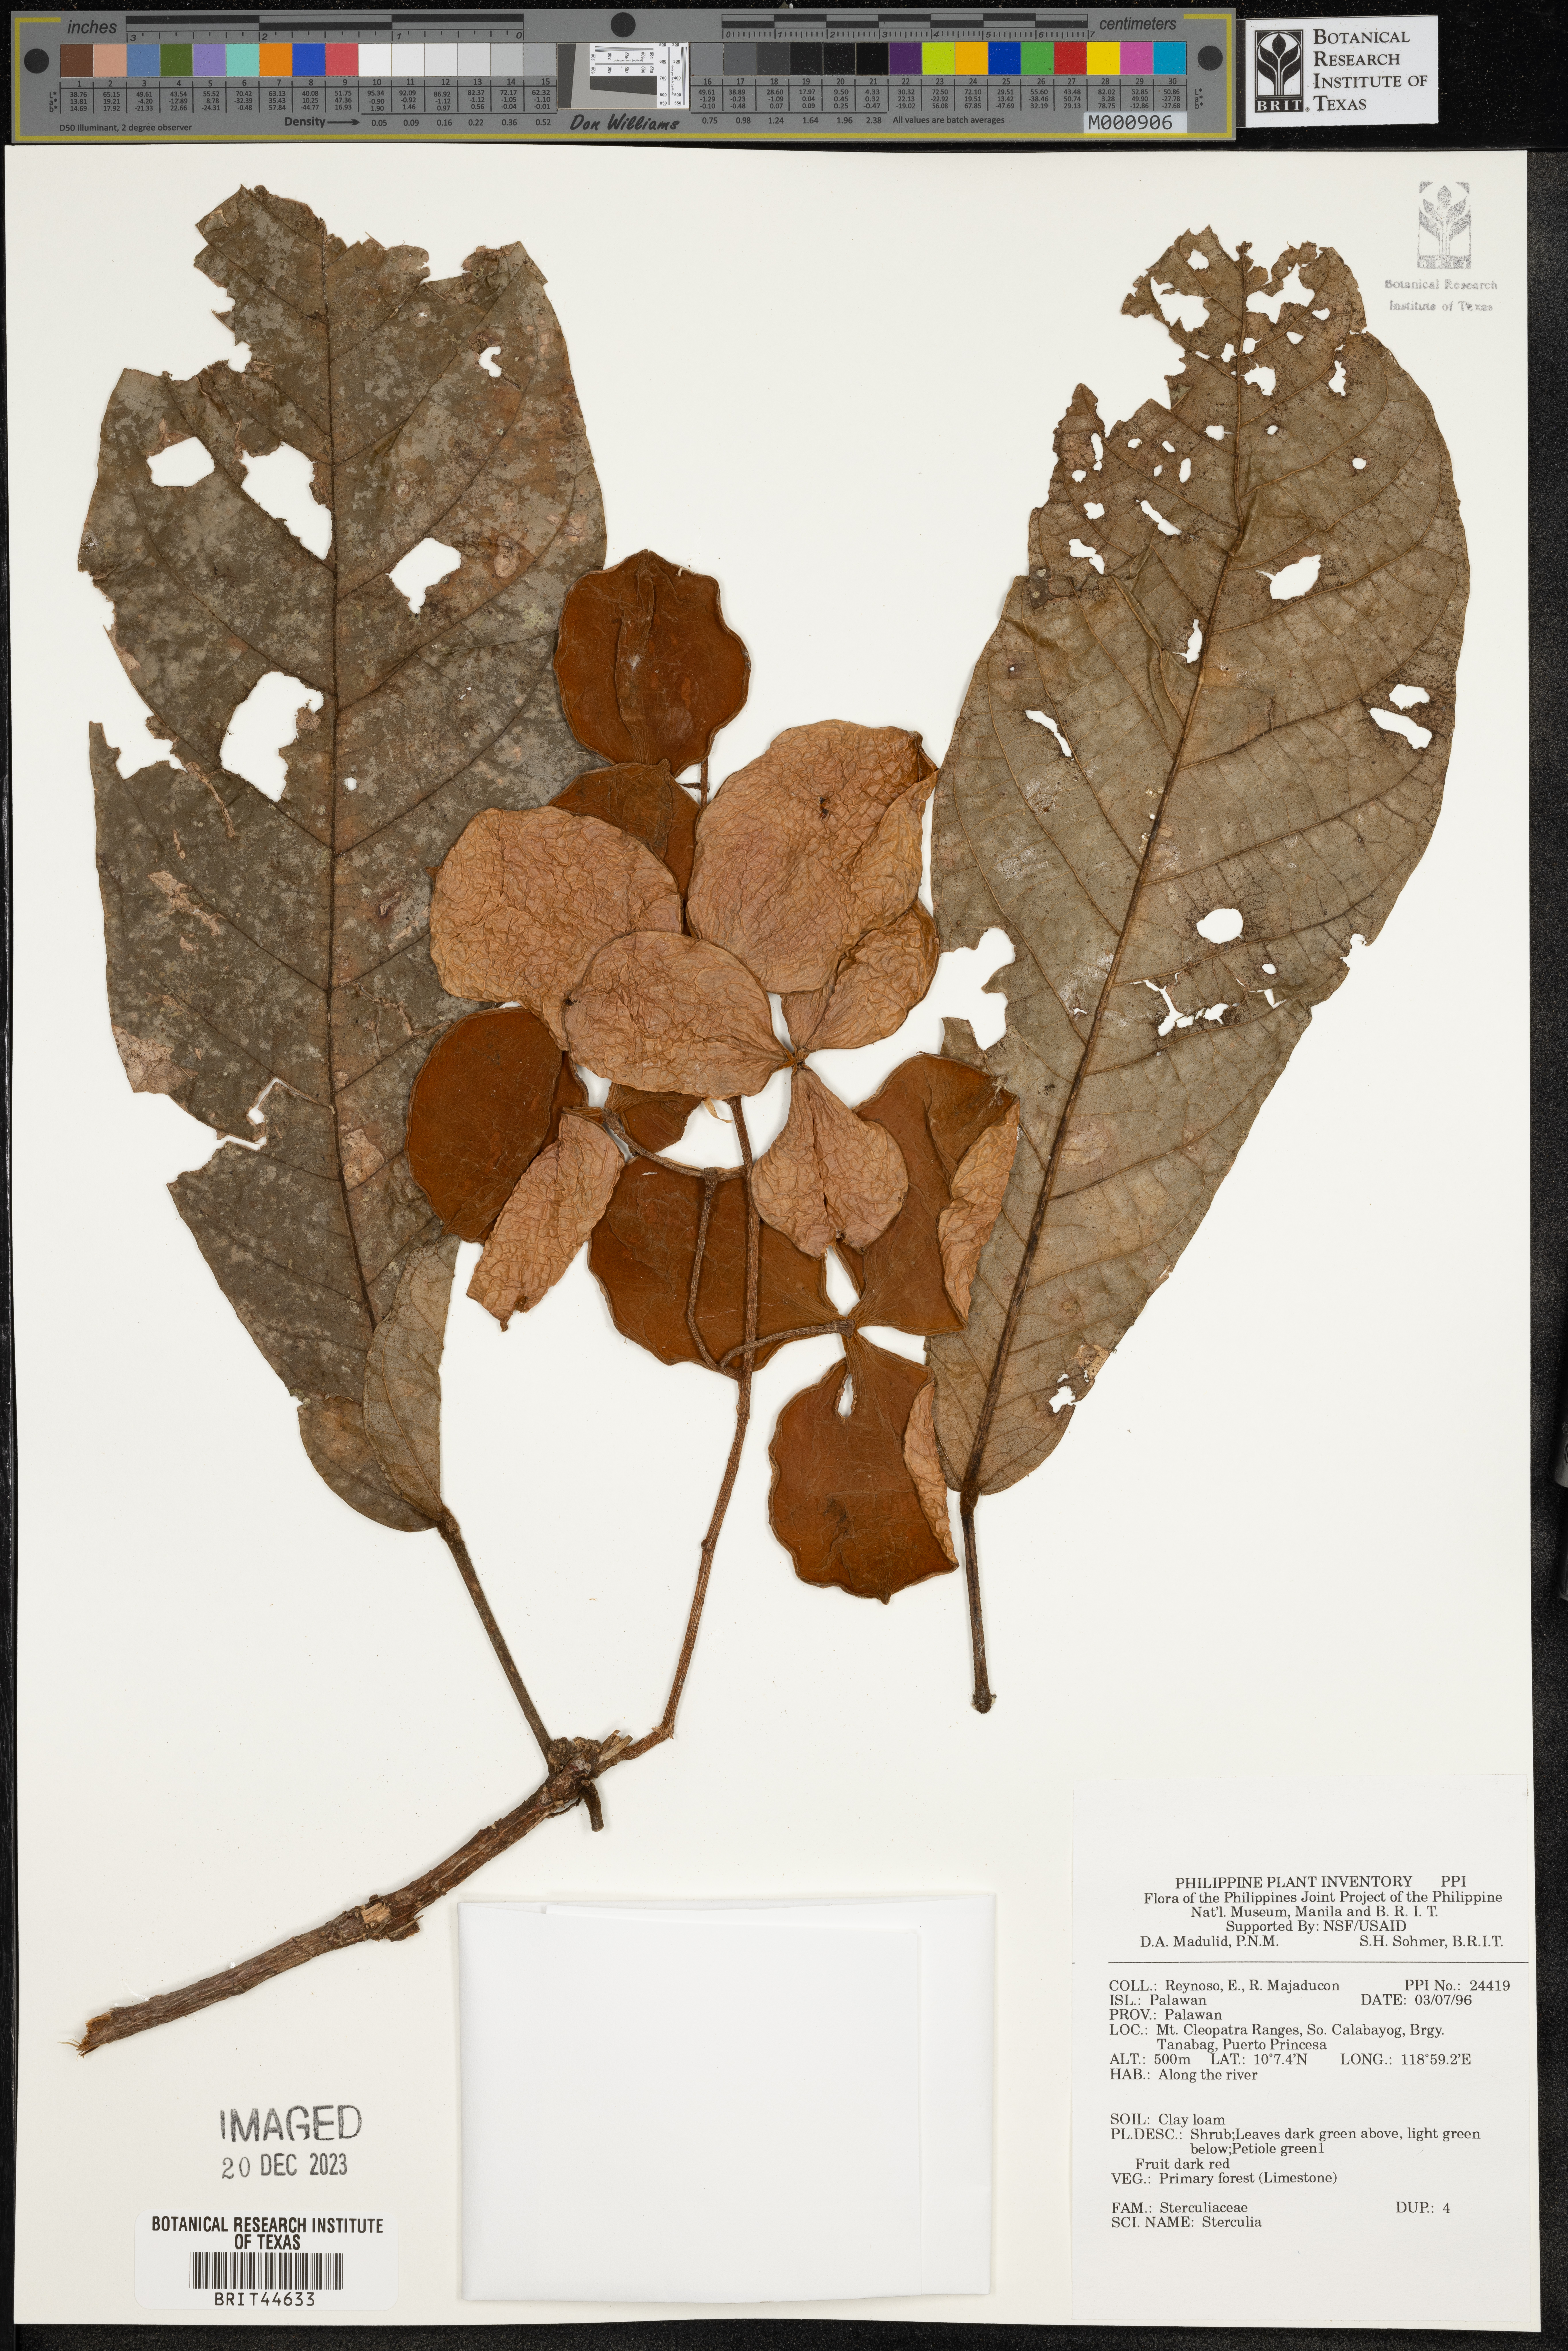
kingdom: Plantae
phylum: Tracheophyta
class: Magnoliopsida
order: Malvales
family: Malvaceae
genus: Sterculia
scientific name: Sterculia
